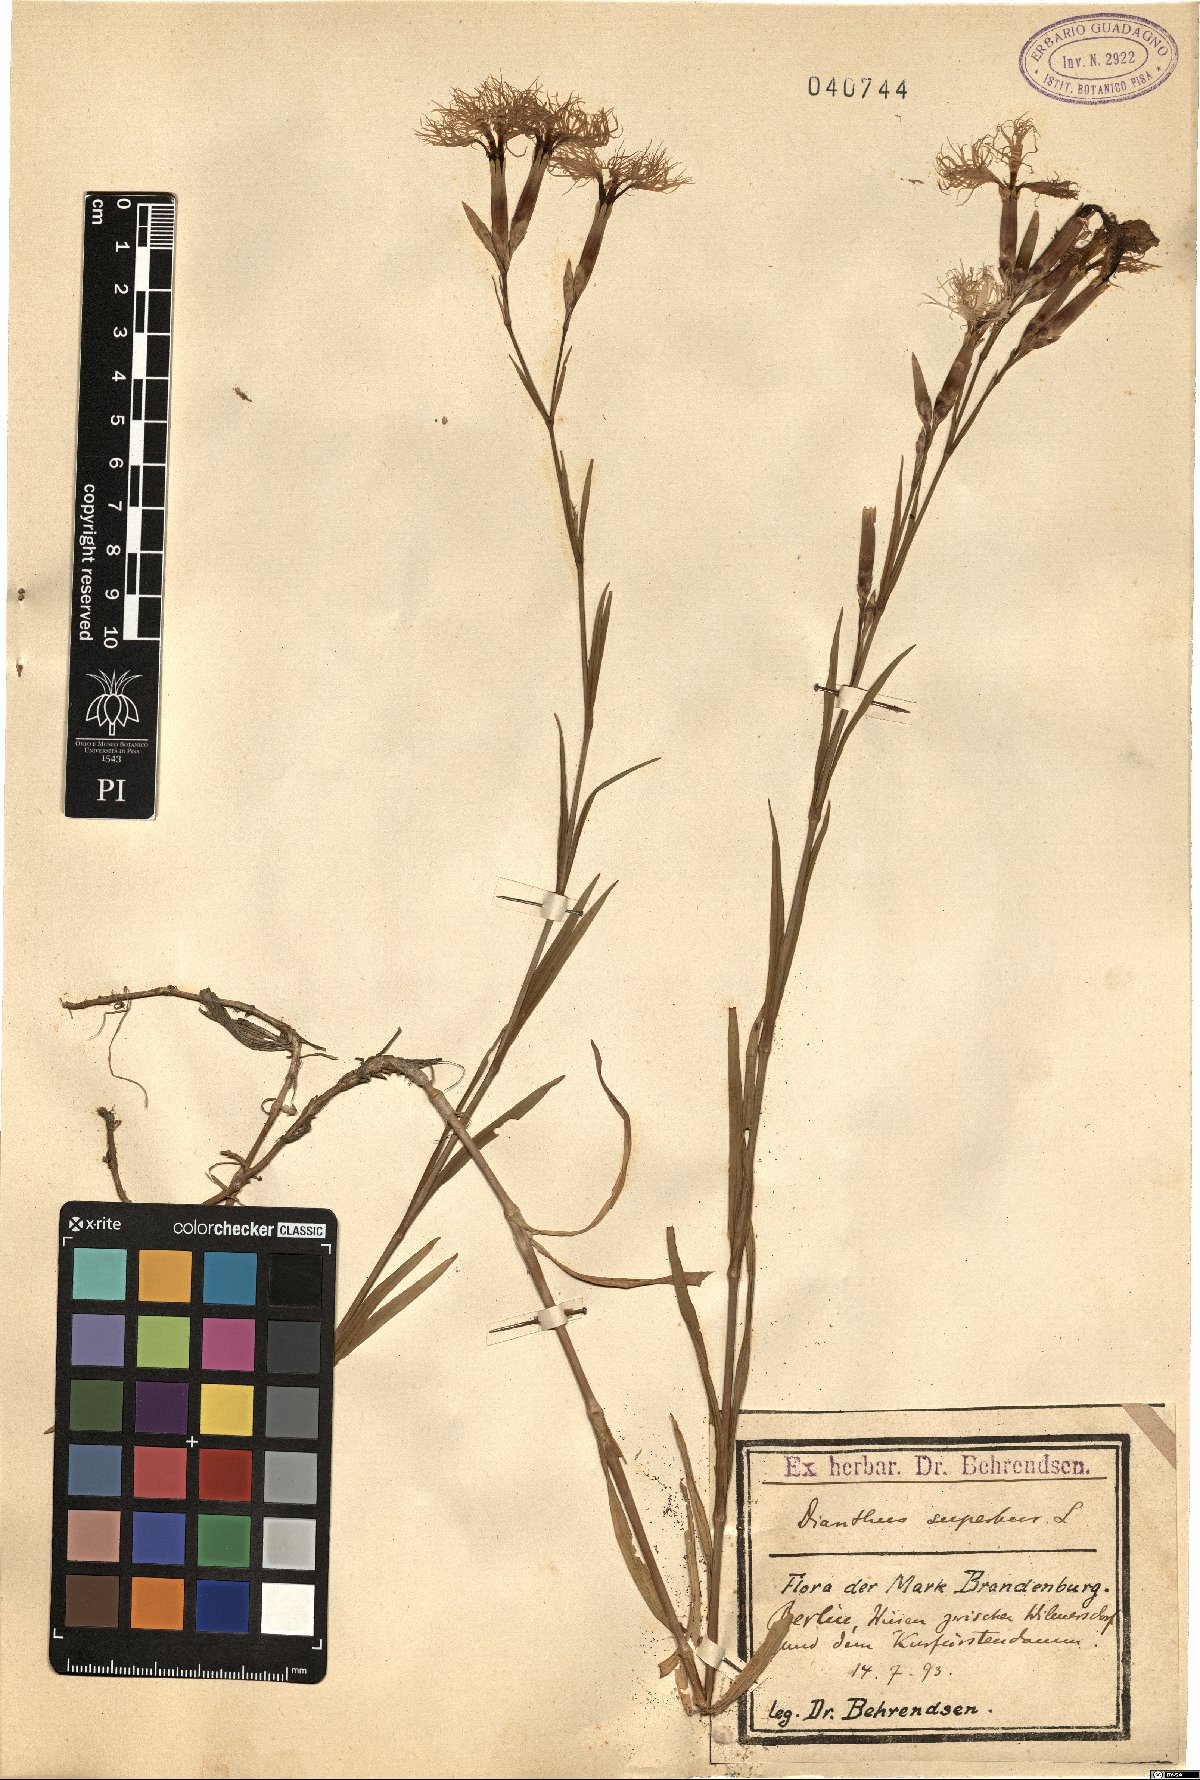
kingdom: Plantae
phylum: Tracheophyta
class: Magnoliopsida
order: Caryophyllales
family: Caryophyllaceae
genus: Dianthus
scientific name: Dianthus superbus
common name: Fringed pink
